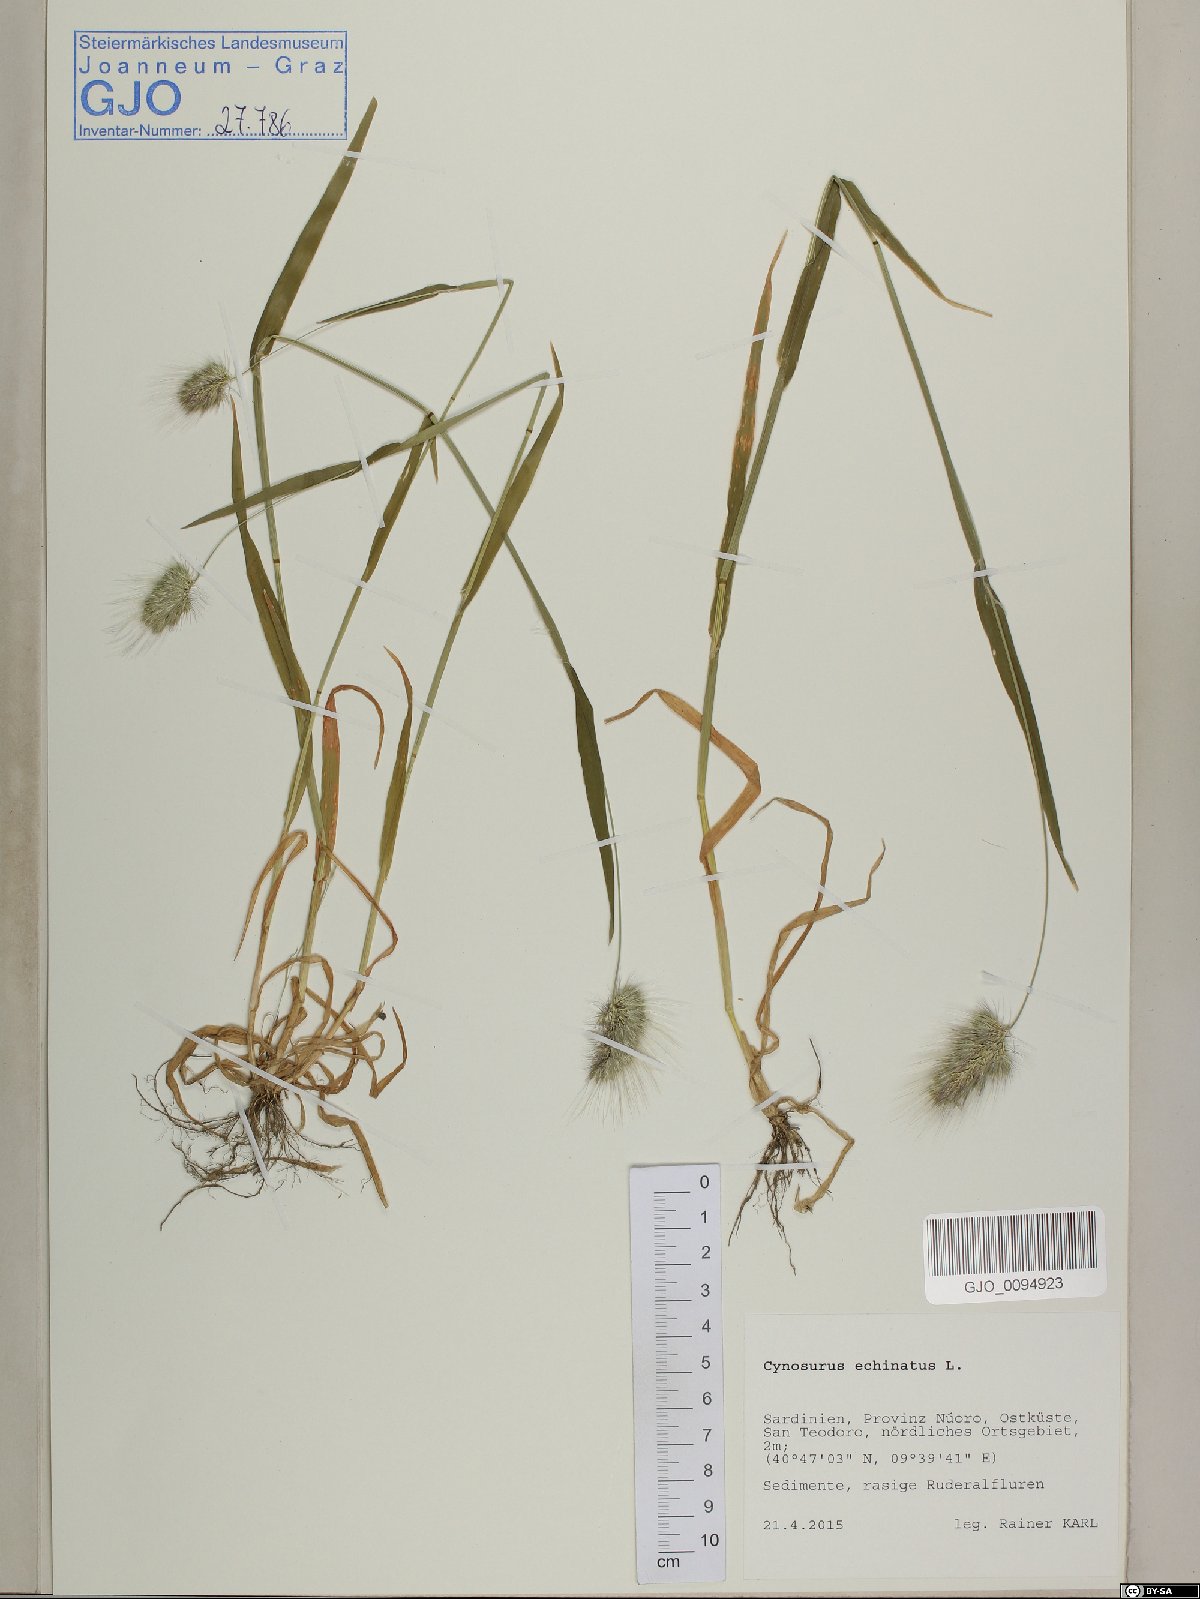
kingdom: Plantae
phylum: Tracheophyta
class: Liliopsida
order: Poales
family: Poaceae
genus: Cynosurus
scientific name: Cynosurus echinatus
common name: Rough dog's-tail
